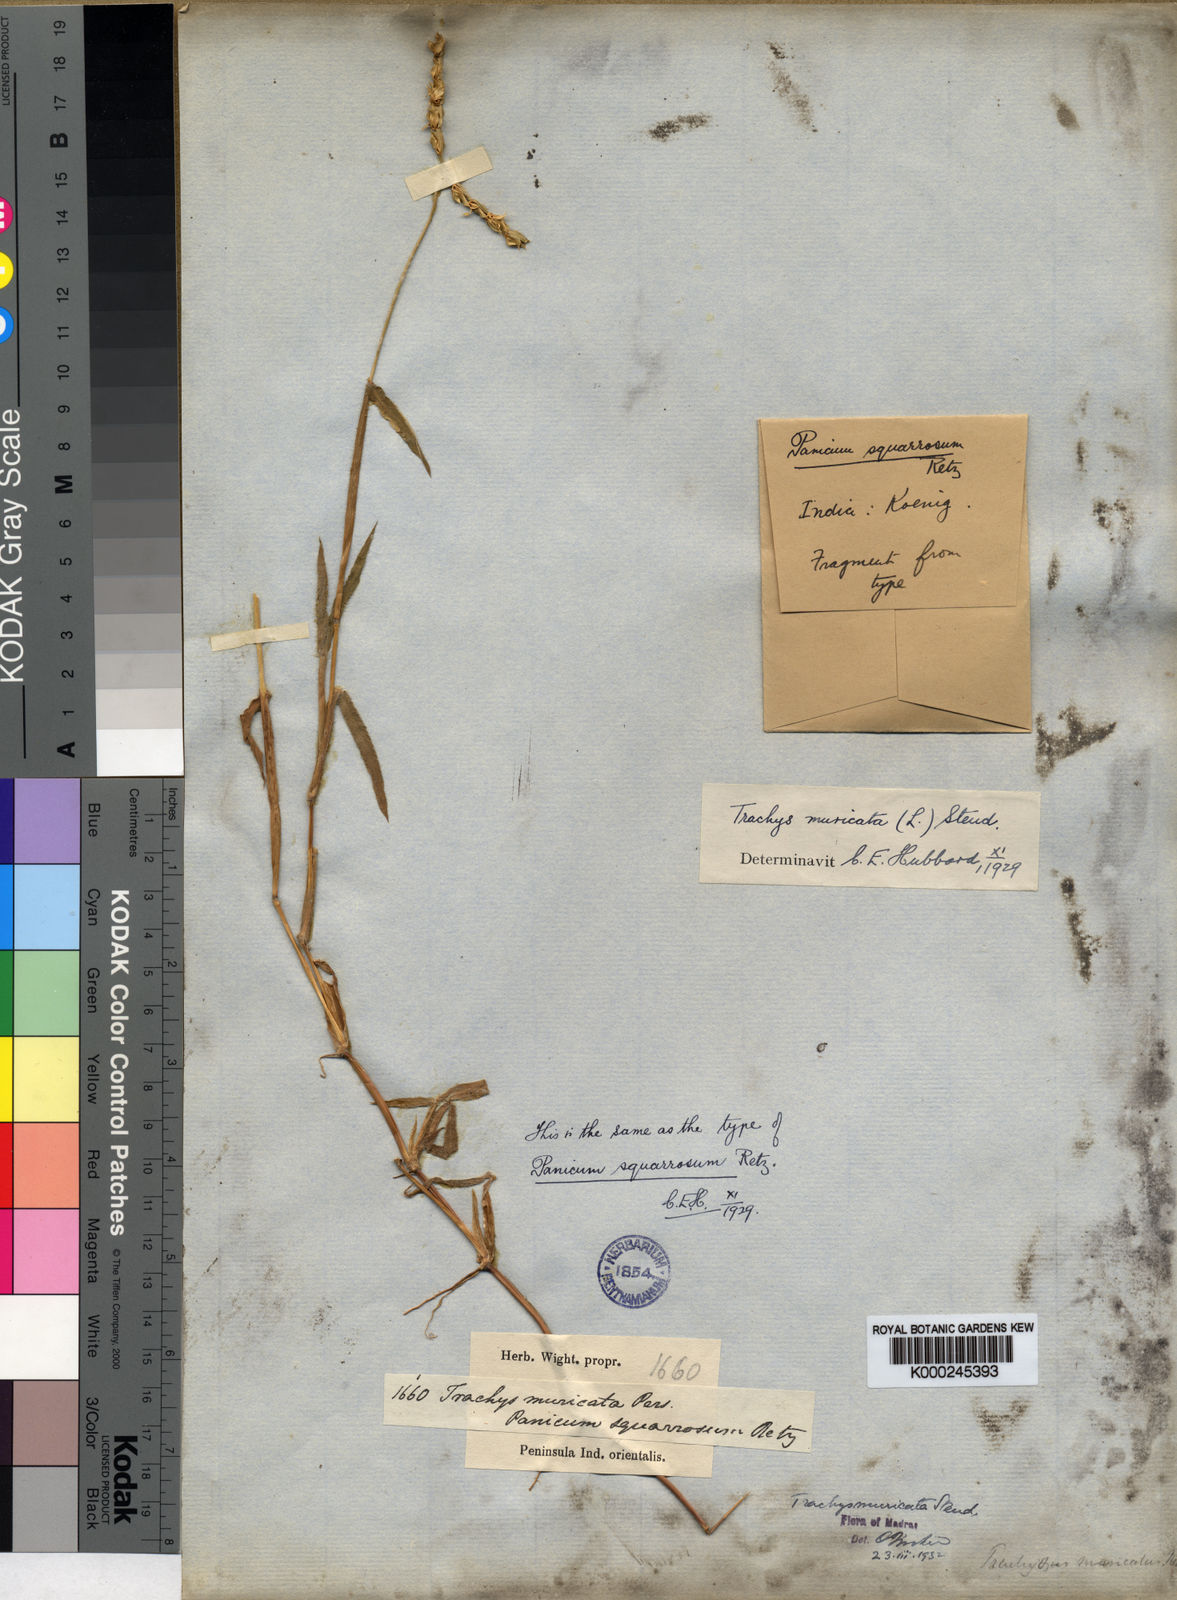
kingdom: Plantae
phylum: Tracheophyta
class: Liliopsida
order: Poales
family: Poaceae
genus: Trachys
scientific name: Trachys muricata
